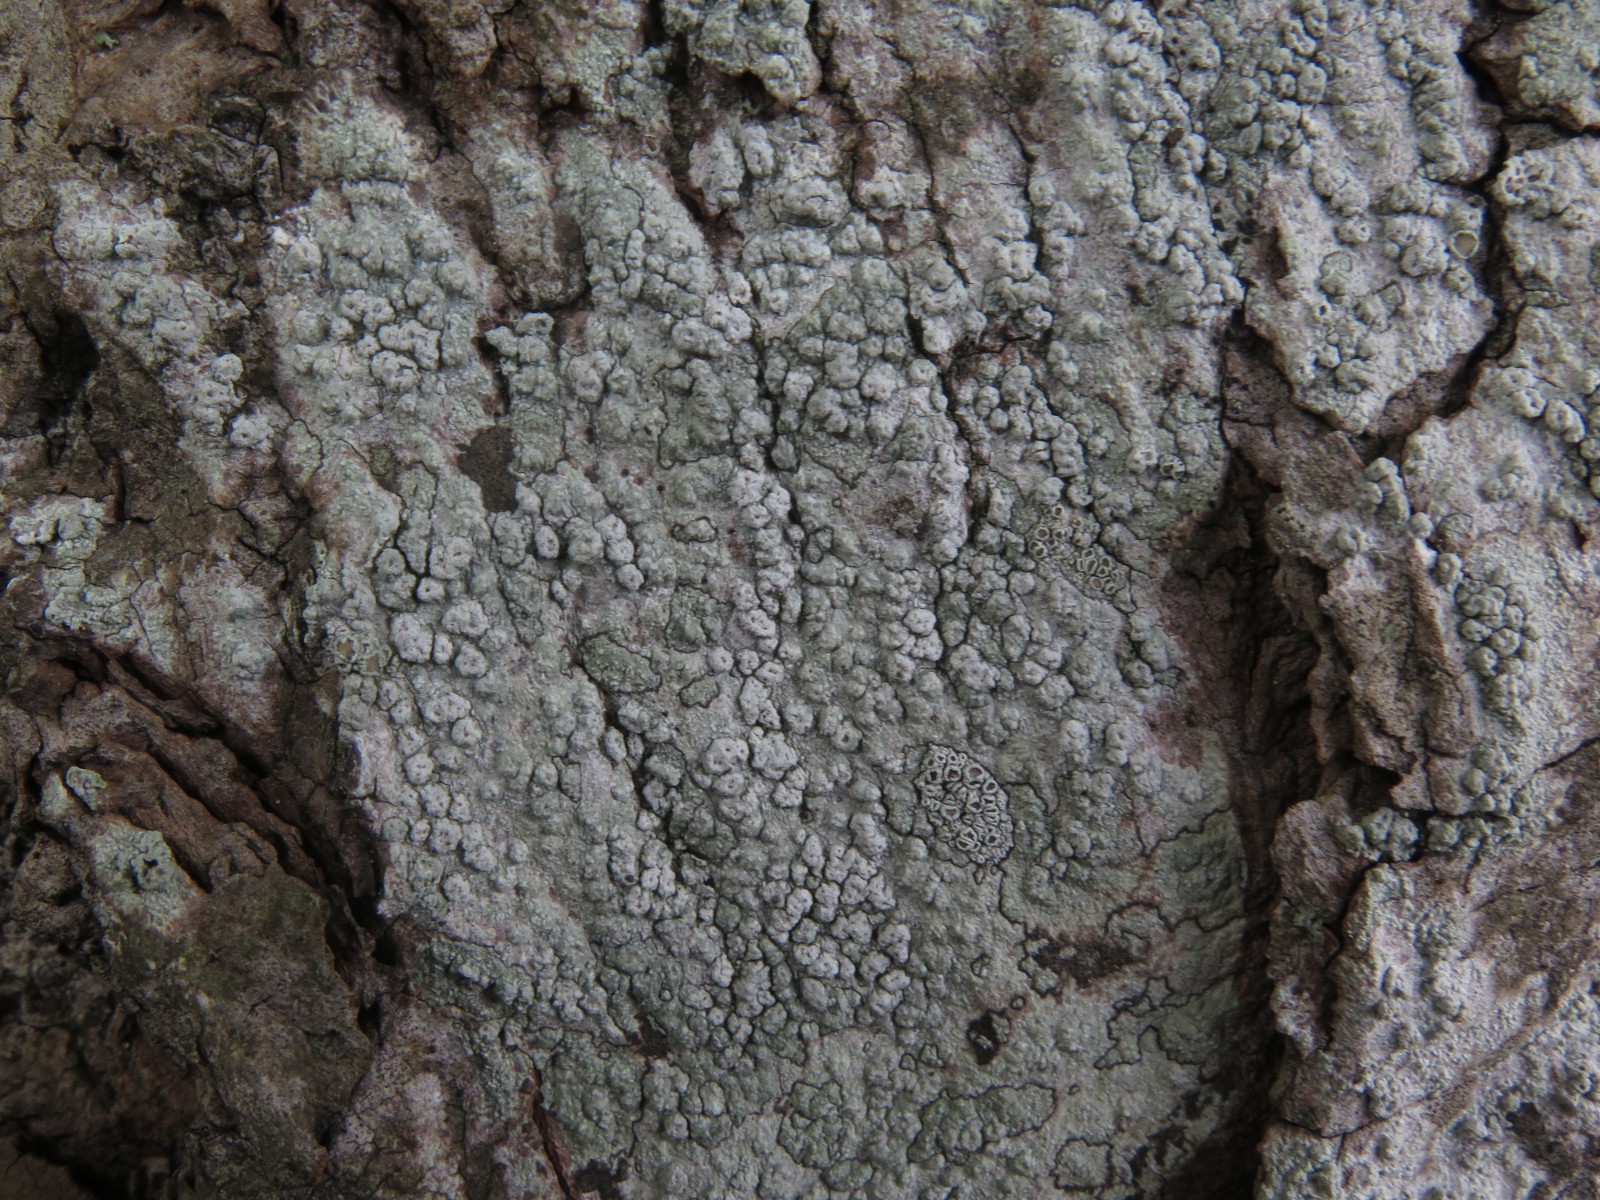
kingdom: Fungi
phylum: Ascomycota
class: Lecanoromycetes
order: Pertusariales
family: Pertusariaceae
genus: Pertusaria
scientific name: Pertusaria pertusa
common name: almindelig prikvortelav
